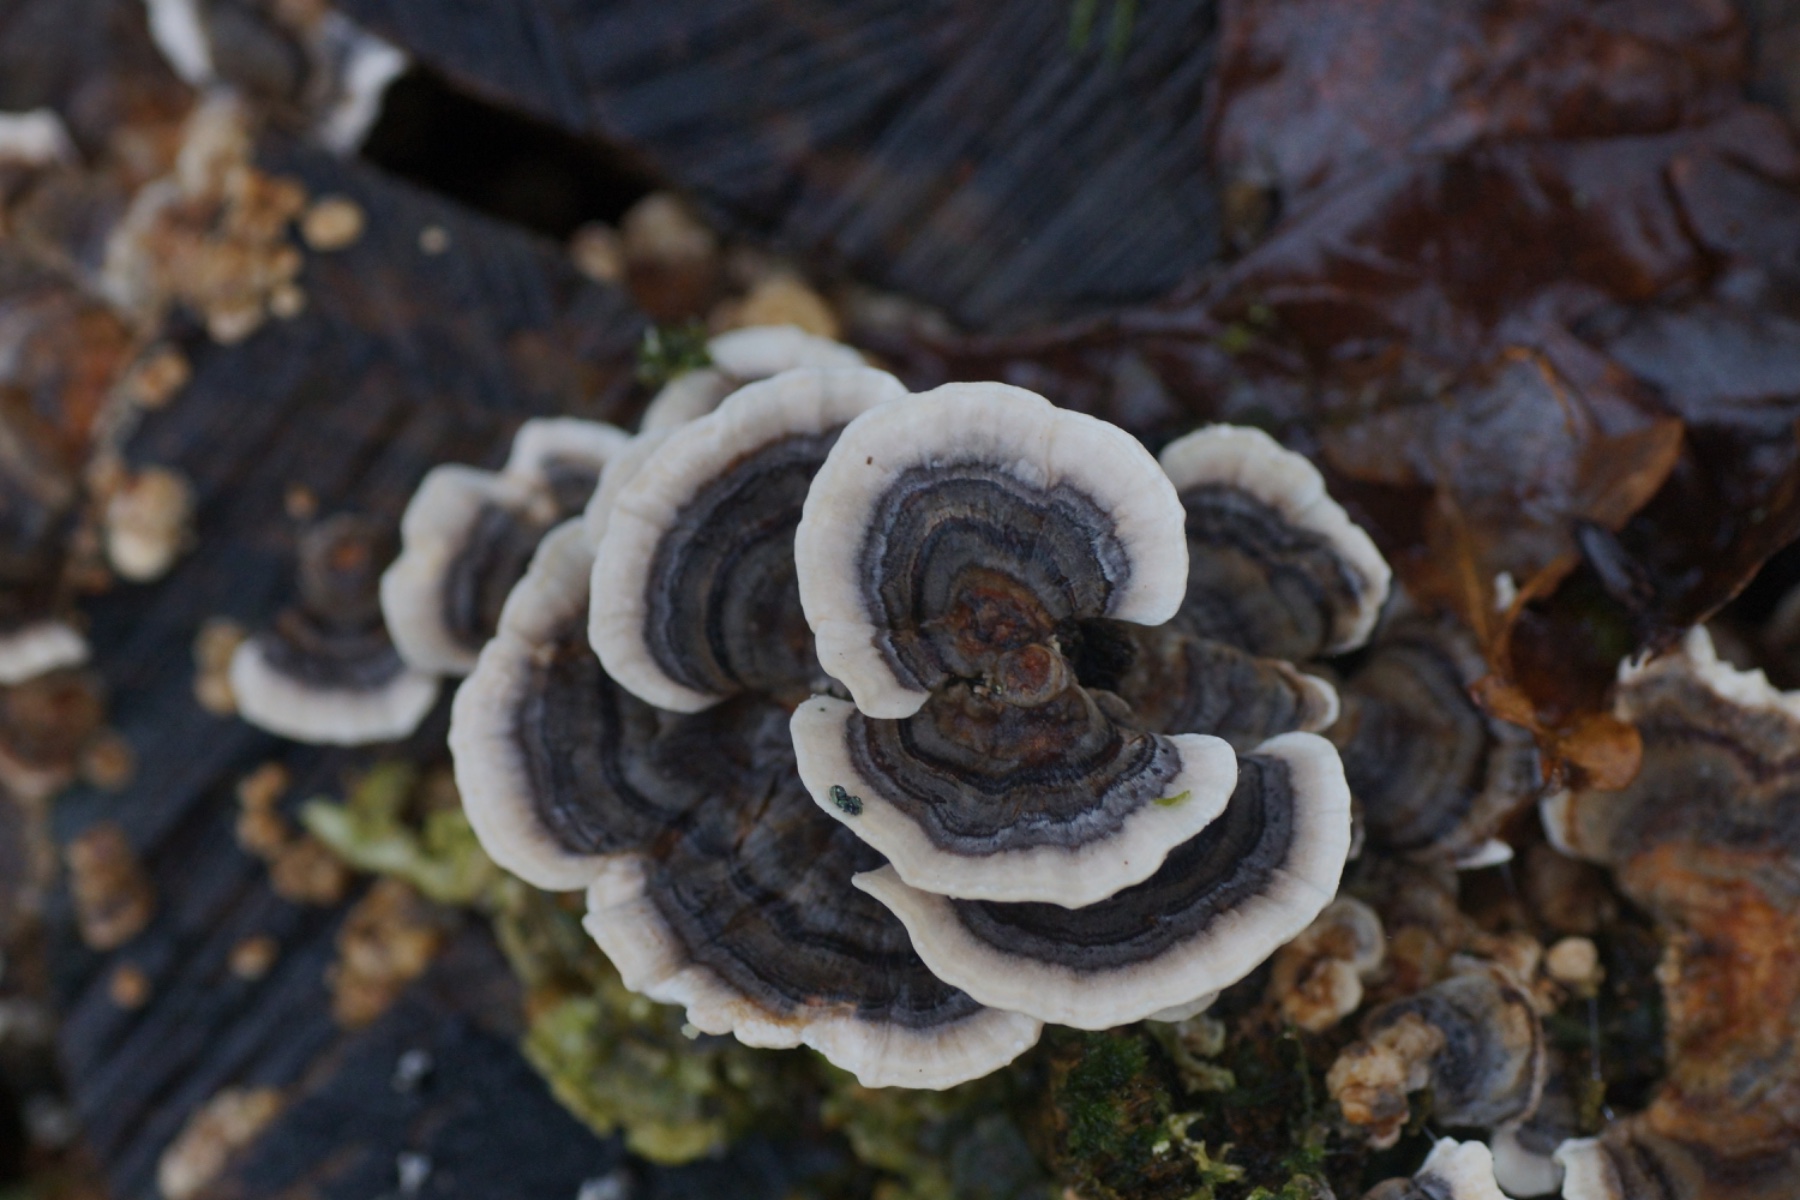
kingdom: Fungi
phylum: Basidiomycota
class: Agaricomycetes
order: Polyporales
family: Polyporaceae
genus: Trametes
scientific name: Trametes versicolor
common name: broget læderporesvamp
